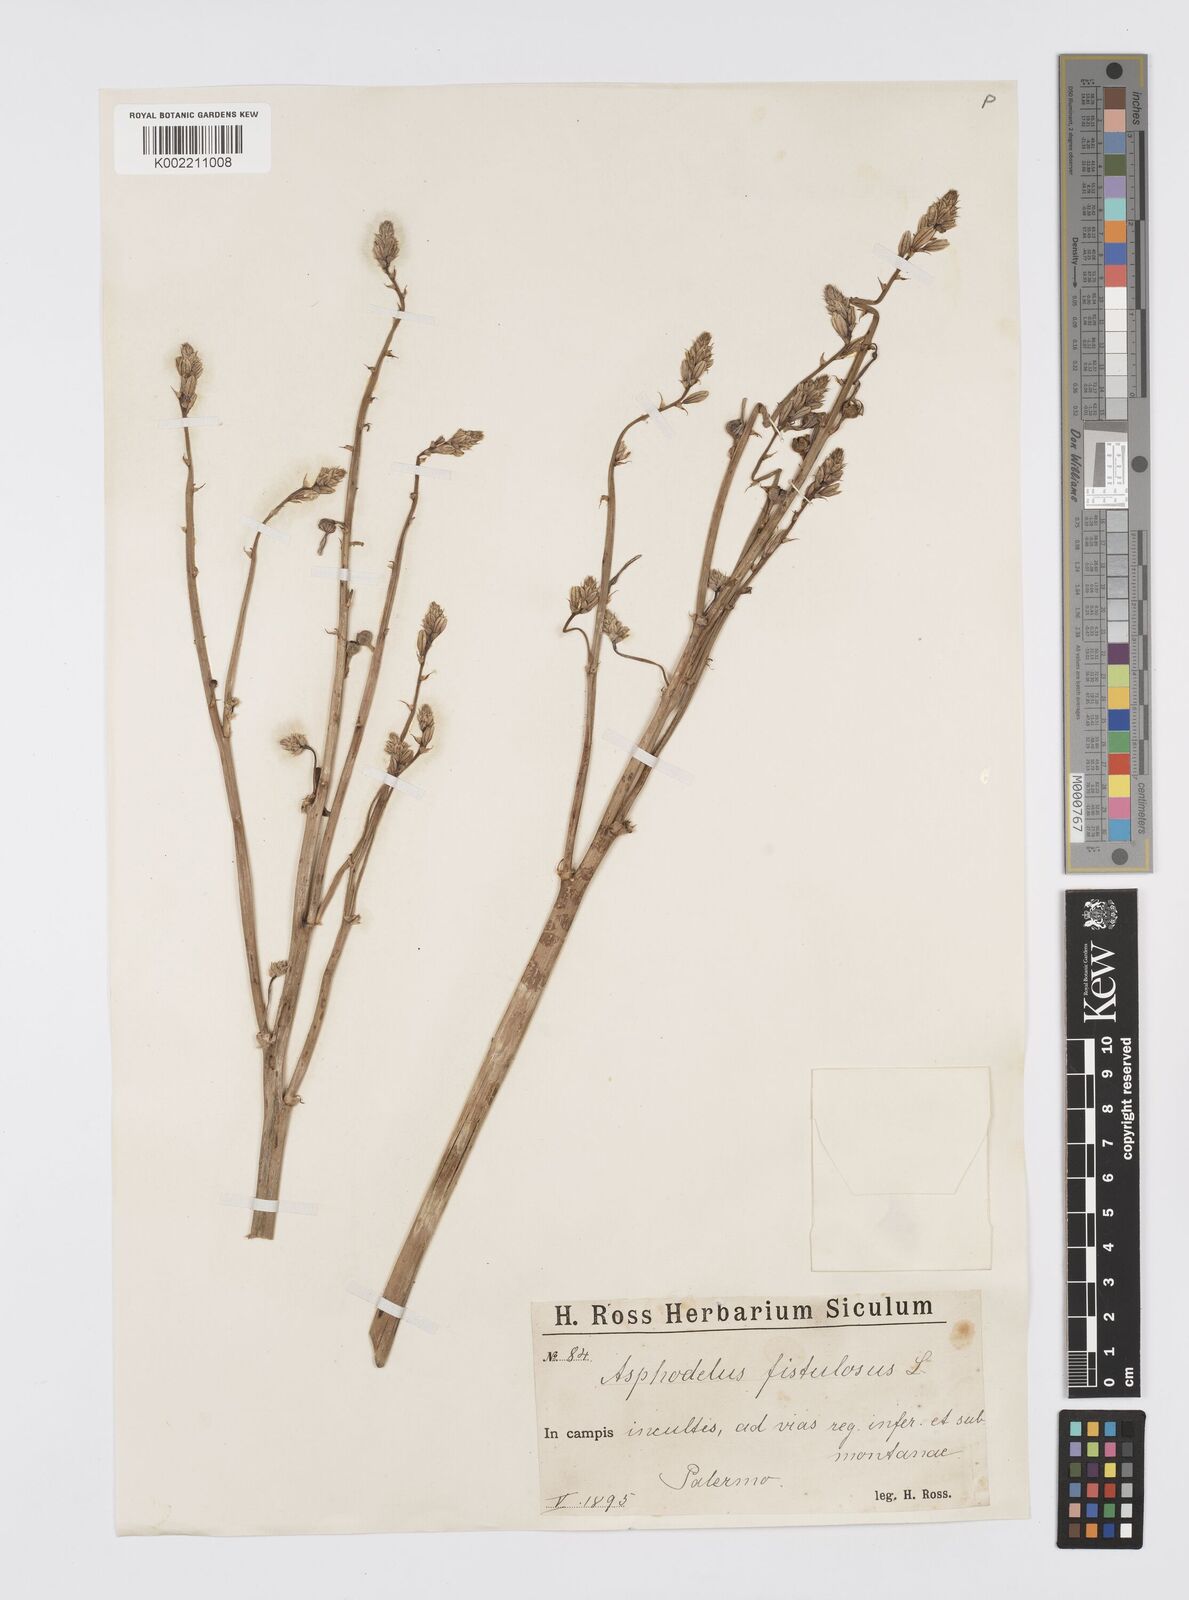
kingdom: Plantae
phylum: Tracheophyta
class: Liliopsida
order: Asparagales
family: Asphodelaceae
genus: Asphodelus
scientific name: Asphodelus fistulosus
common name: Onionweed
